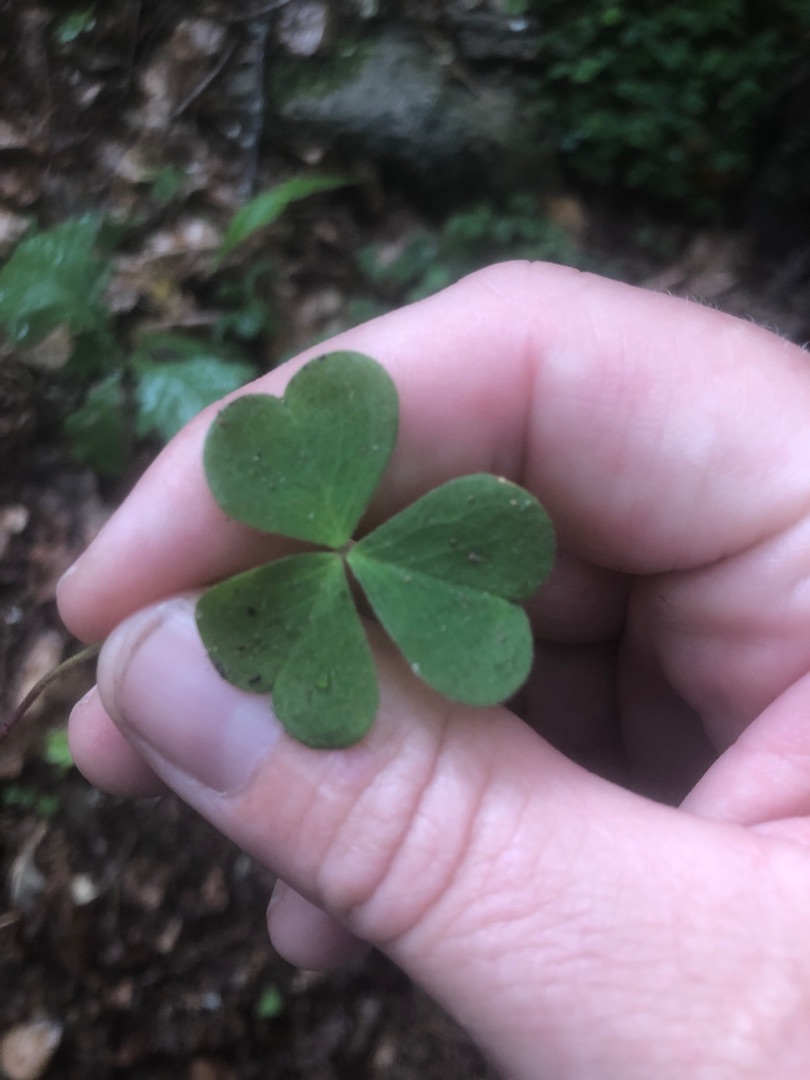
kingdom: Plantae
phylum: Tracheophyta
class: Magnoliopsida
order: Oxalidales
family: Oxalidaceae
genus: Oxalis
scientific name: Oxalis acetosella
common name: Skovsyre
